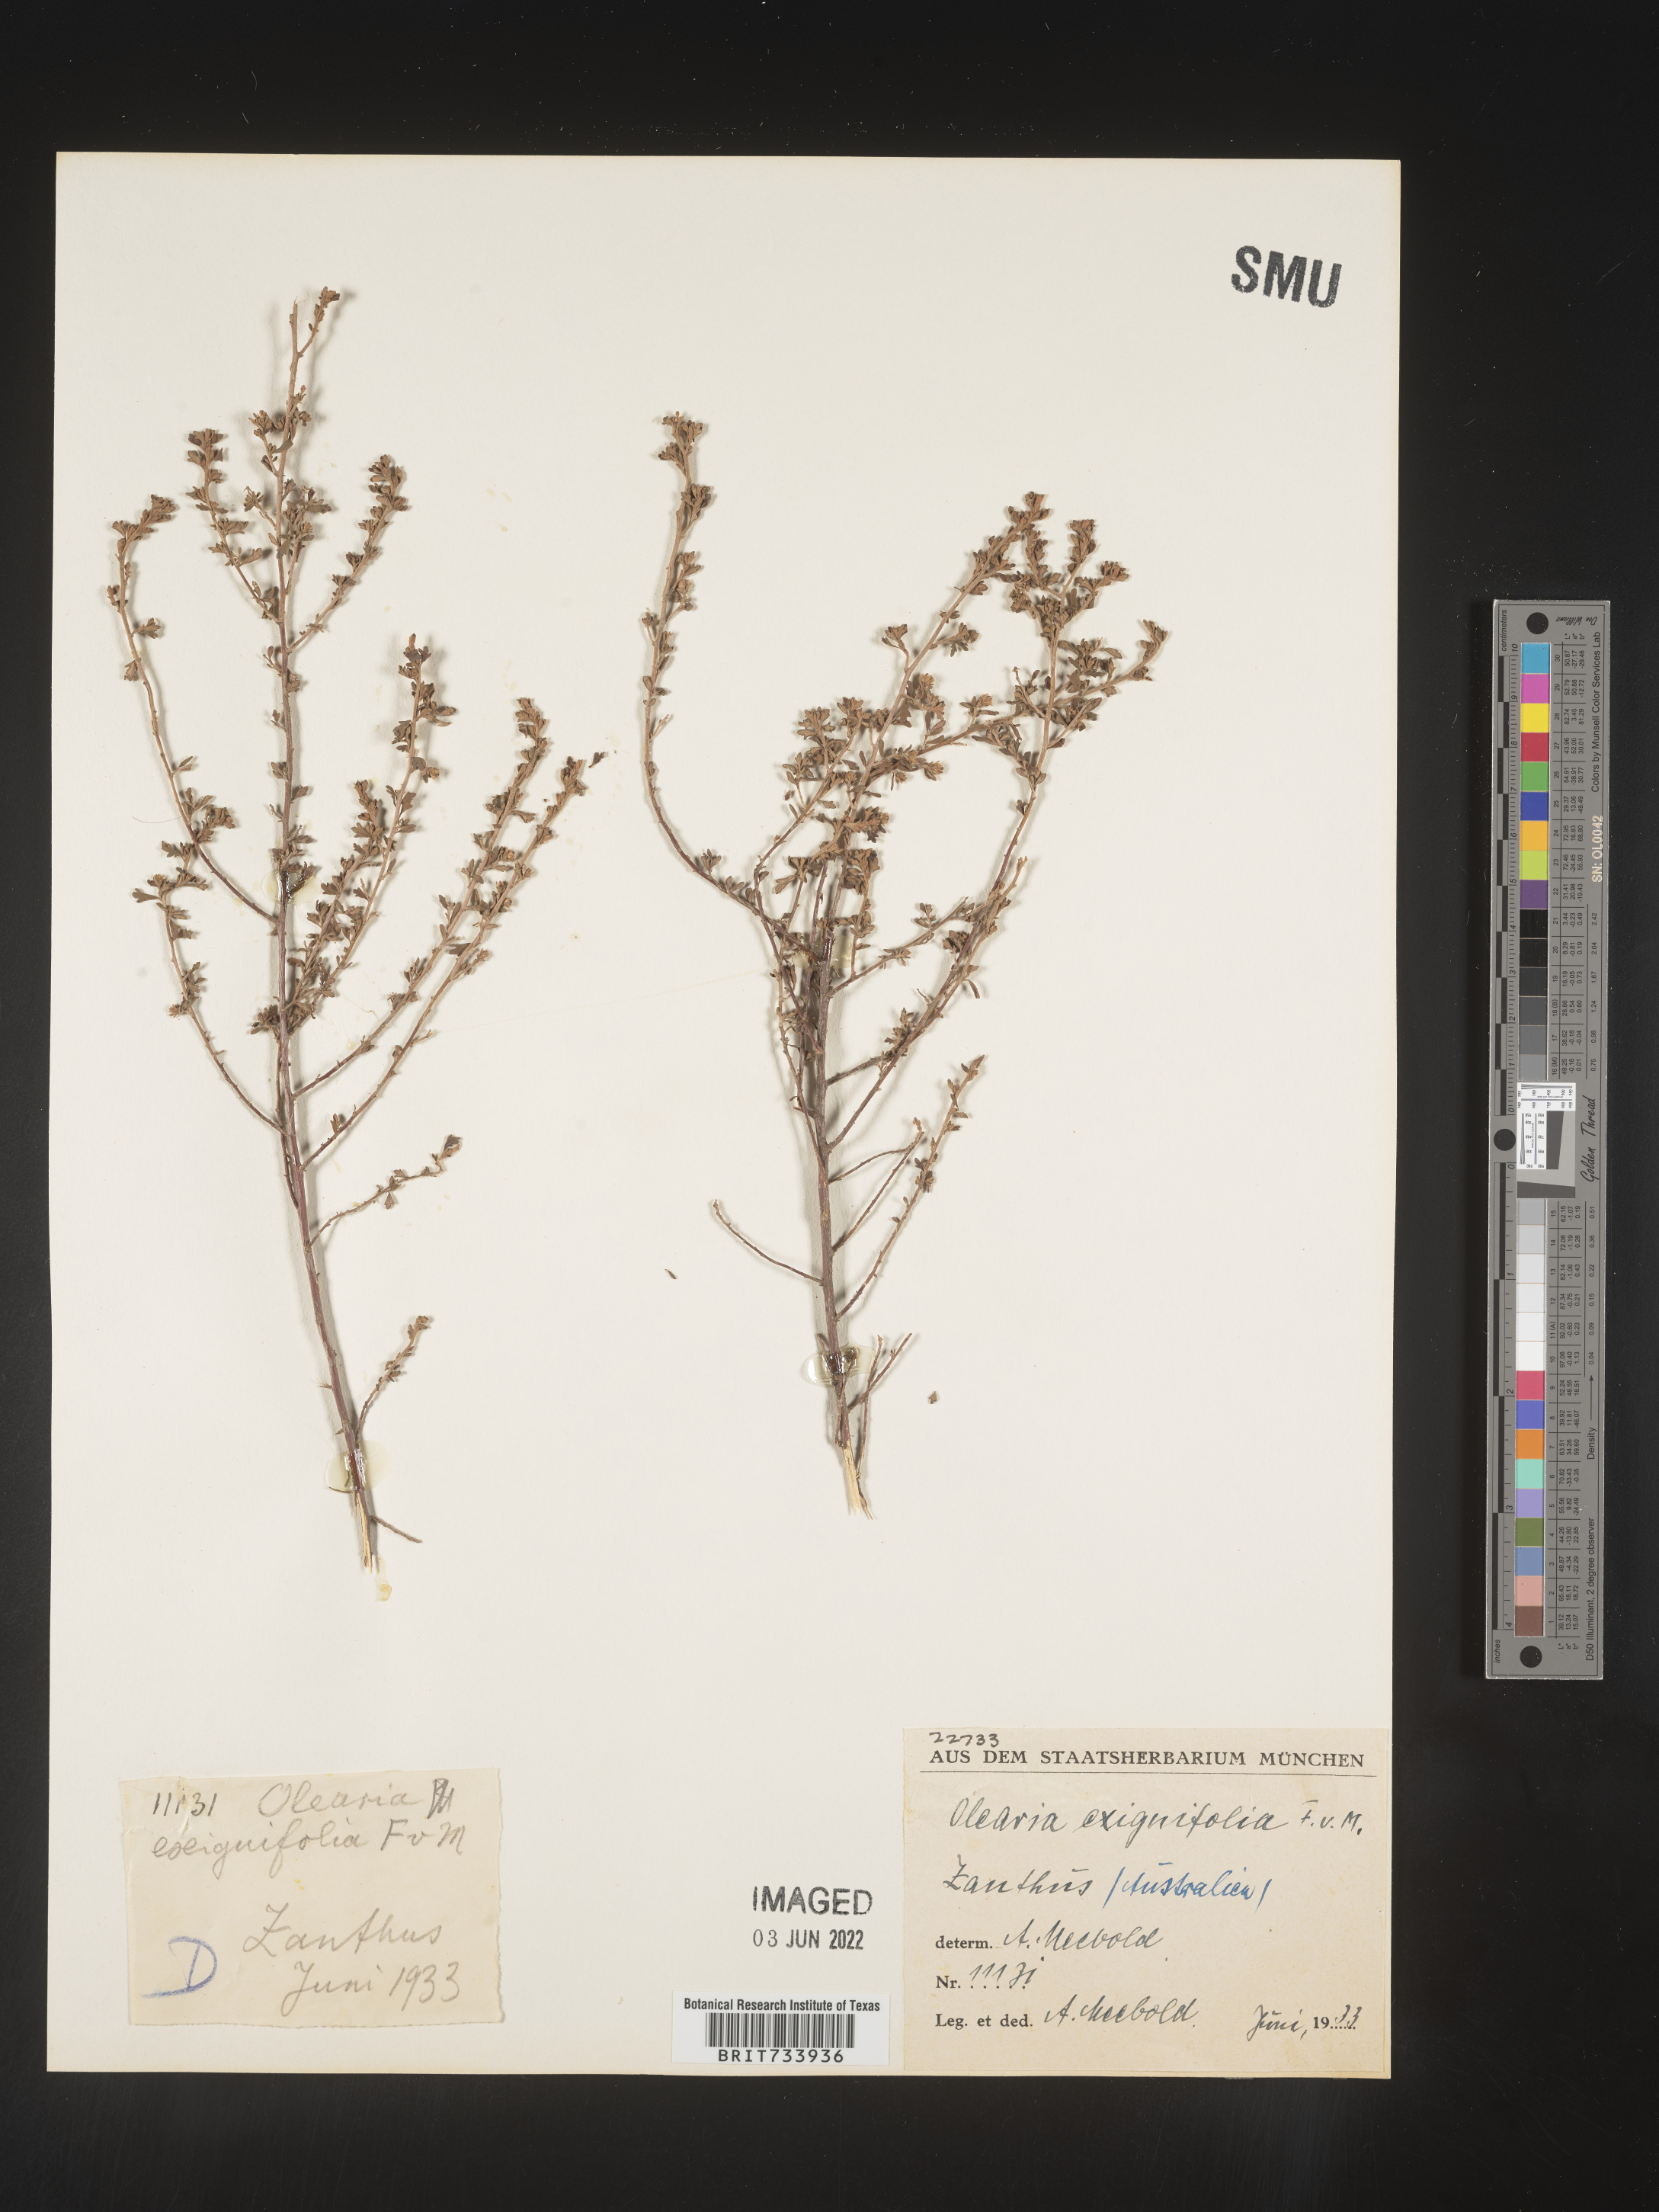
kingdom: Plantae
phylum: Tracheophyta
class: Magnoliopsida
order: Asterales
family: Asteraceae
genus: Olearia
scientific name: Olearia
